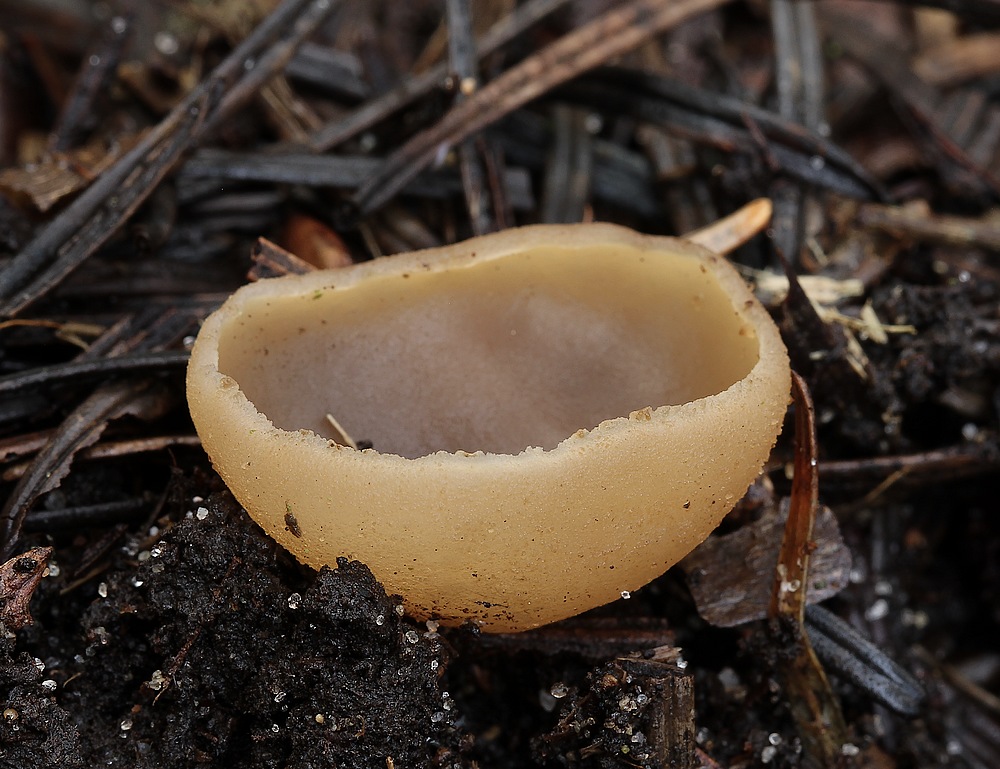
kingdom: Fungi
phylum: Ascomycota
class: Pezizomycetes
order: Pezizales
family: Pezizaceae
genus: Peziza
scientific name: Peziza
